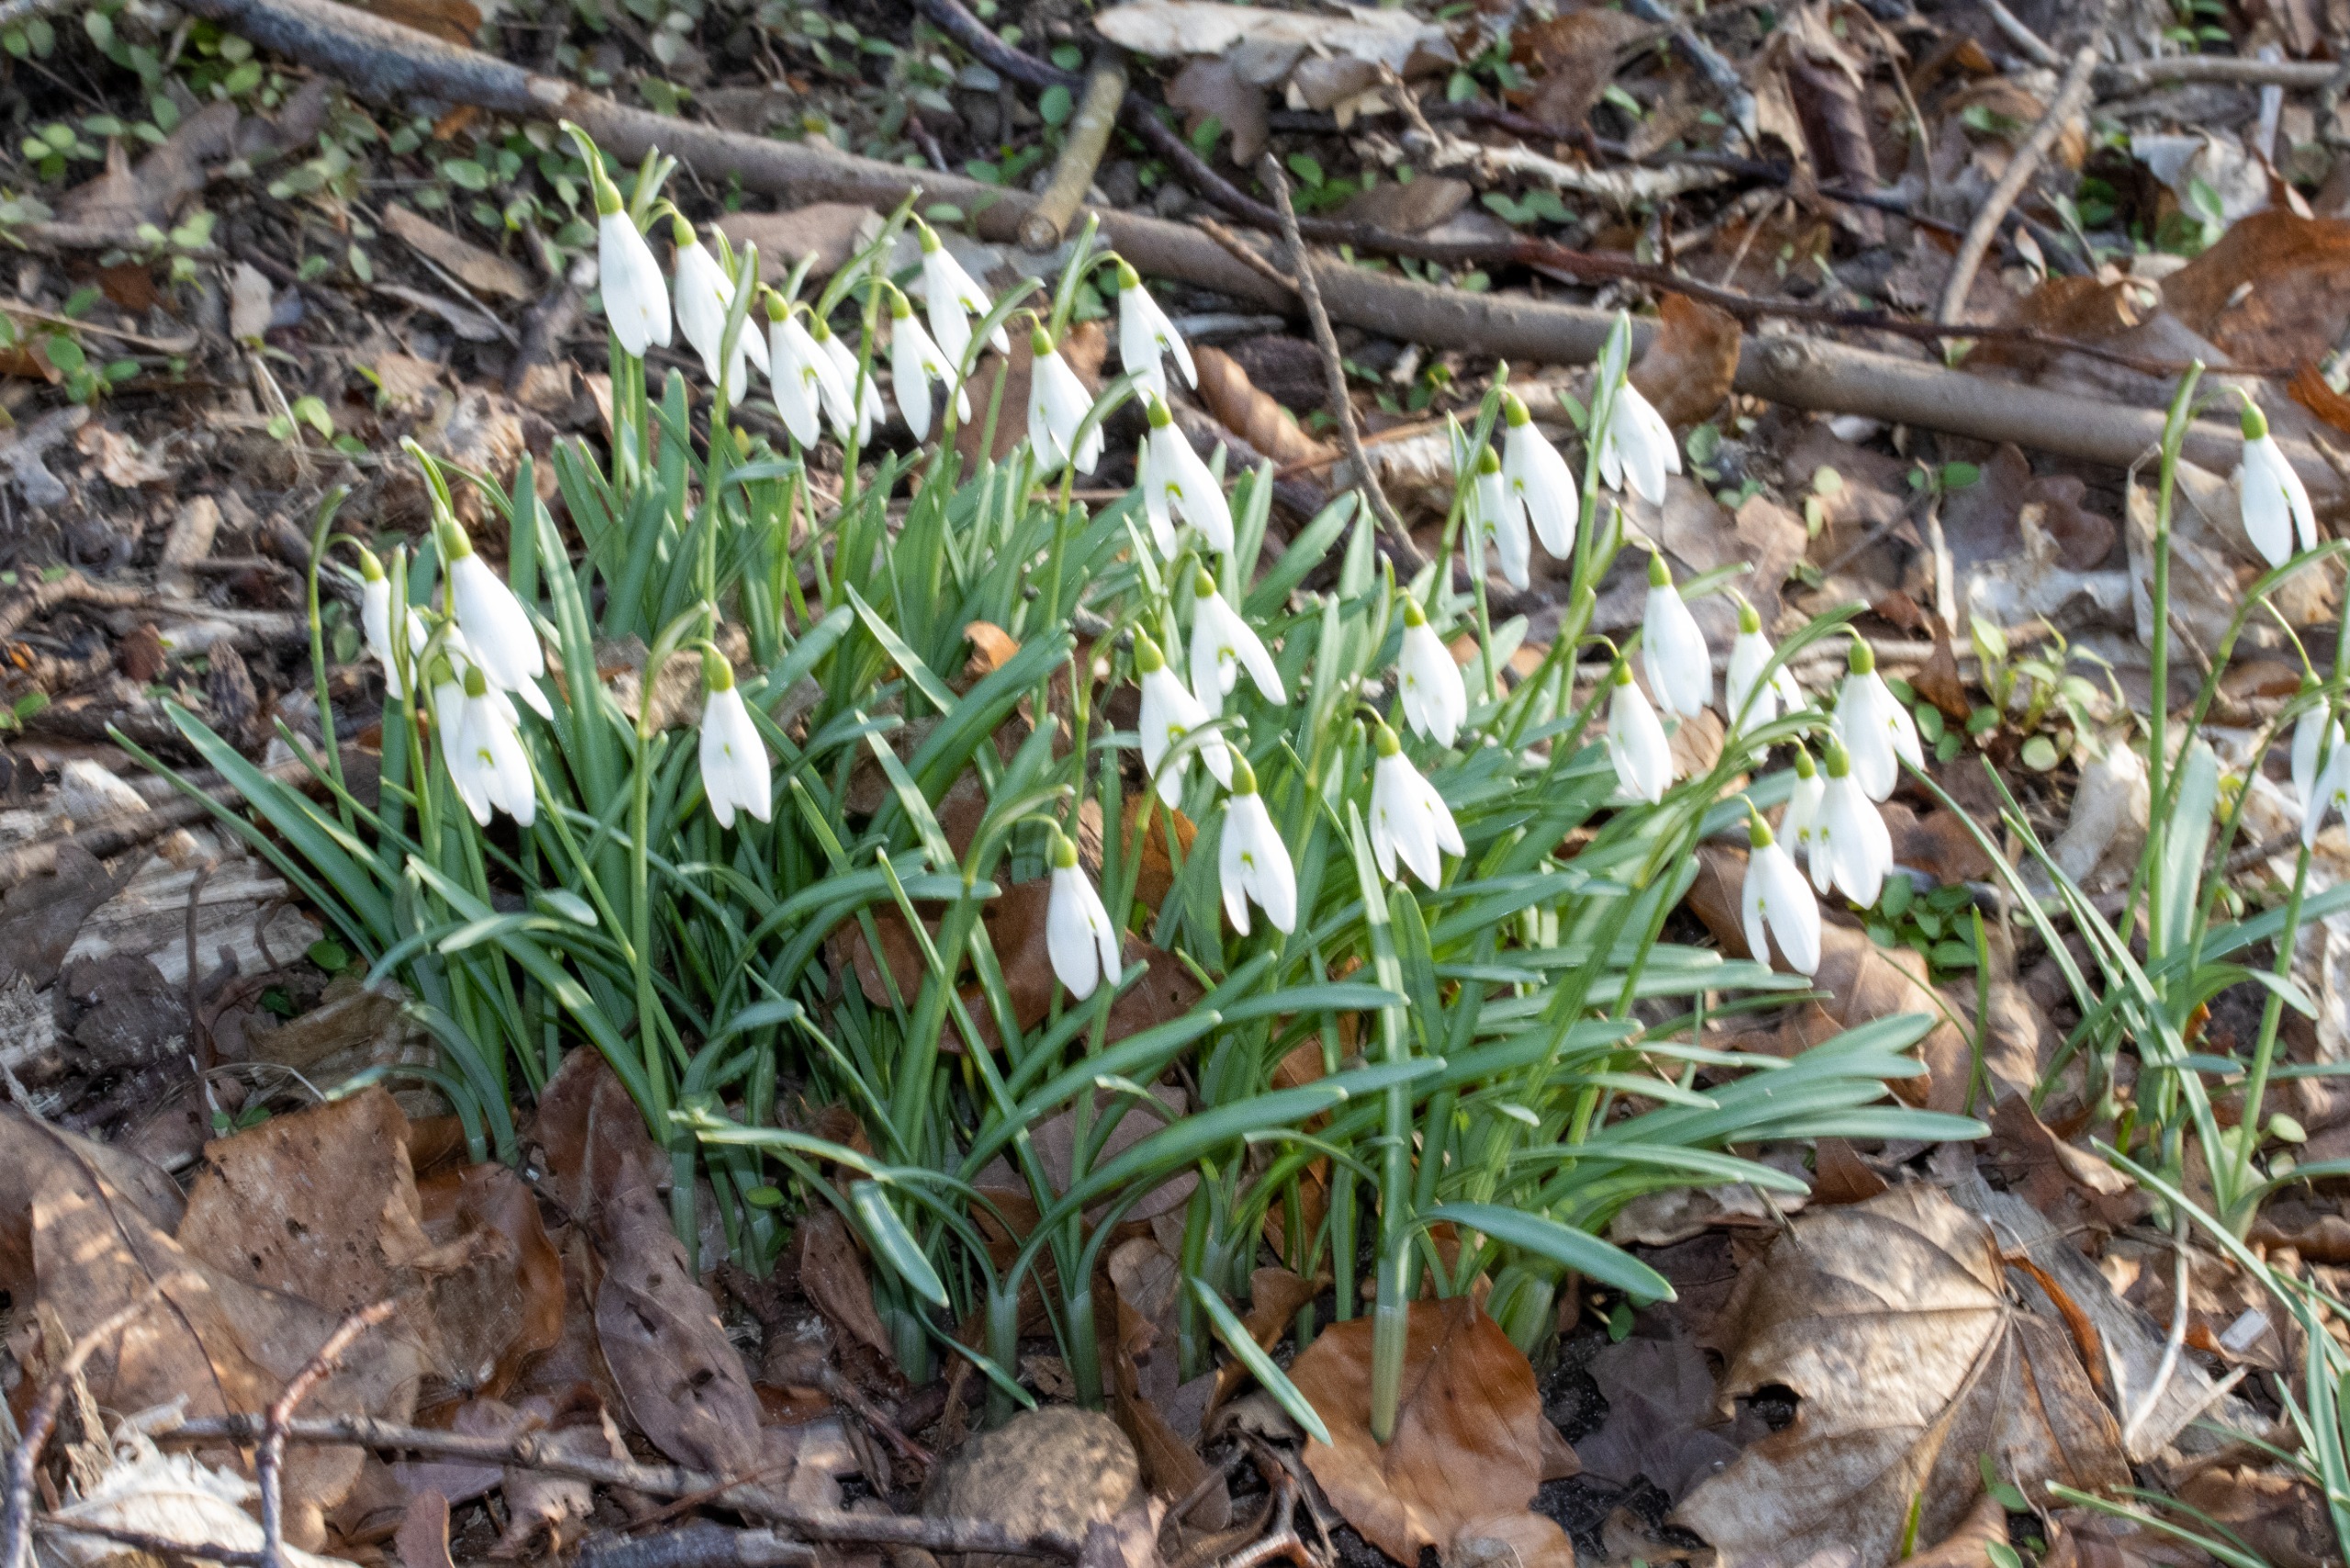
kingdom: Plantae
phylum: Tracheophyta
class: Liliopsida
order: Asparagales
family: Amaryllidaceae
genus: Galanthus
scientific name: Galanthus nivalis
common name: Vintergæk
